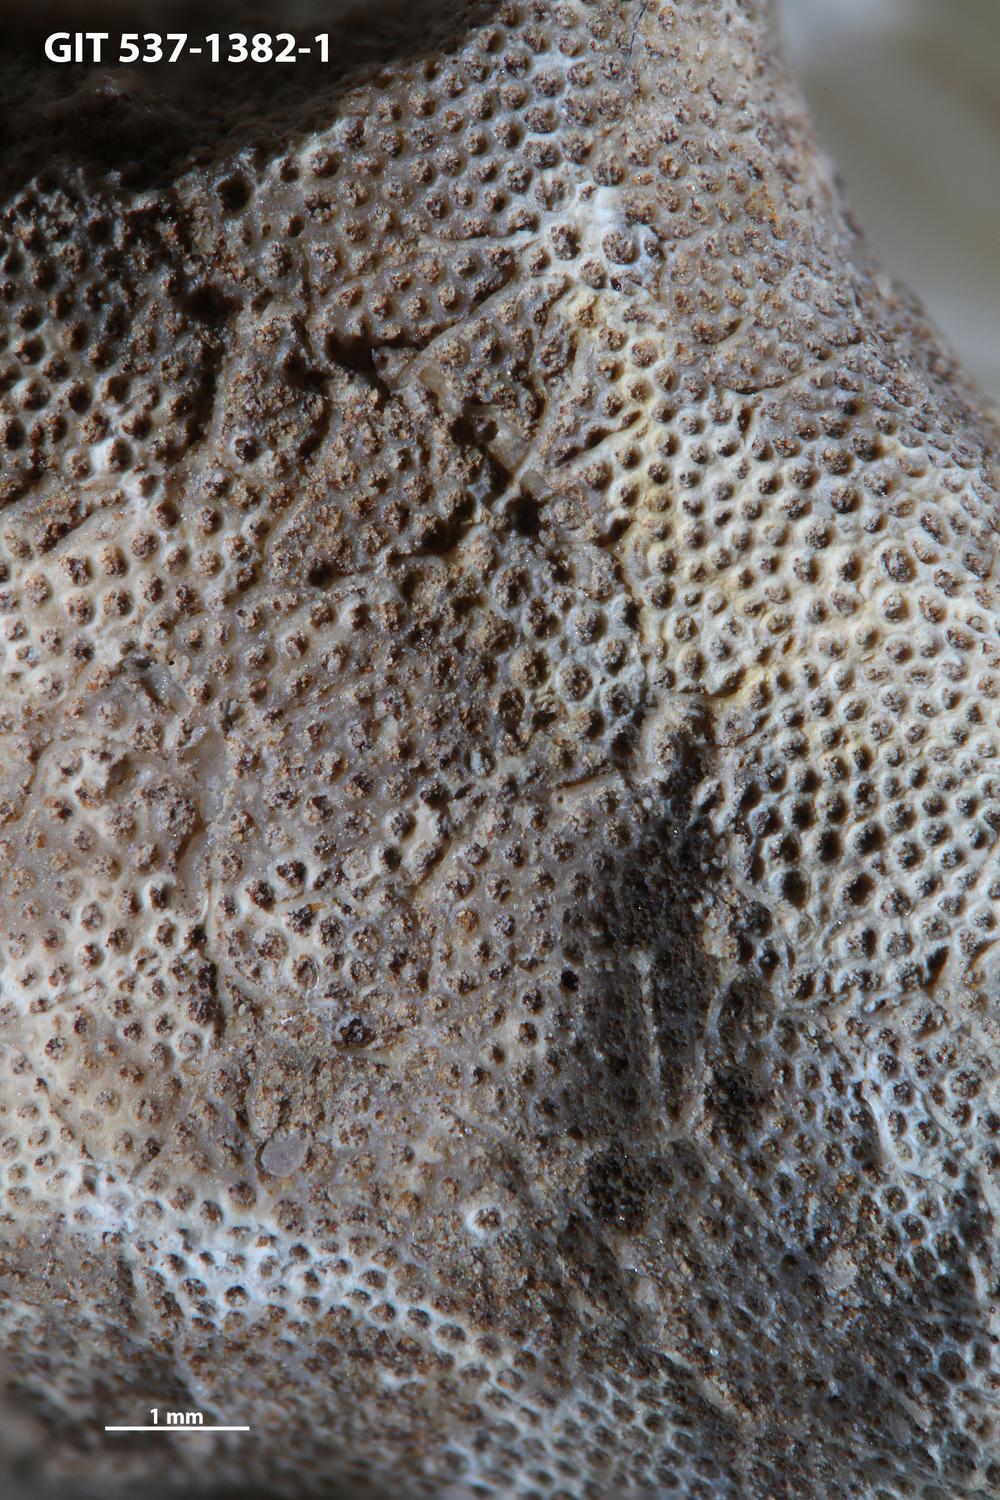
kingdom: Animalia
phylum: Bryozoa
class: Stenolaemata
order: Cyclostomatida
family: Corynotrypidae
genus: Corynotrypa
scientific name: Corynotrypa
